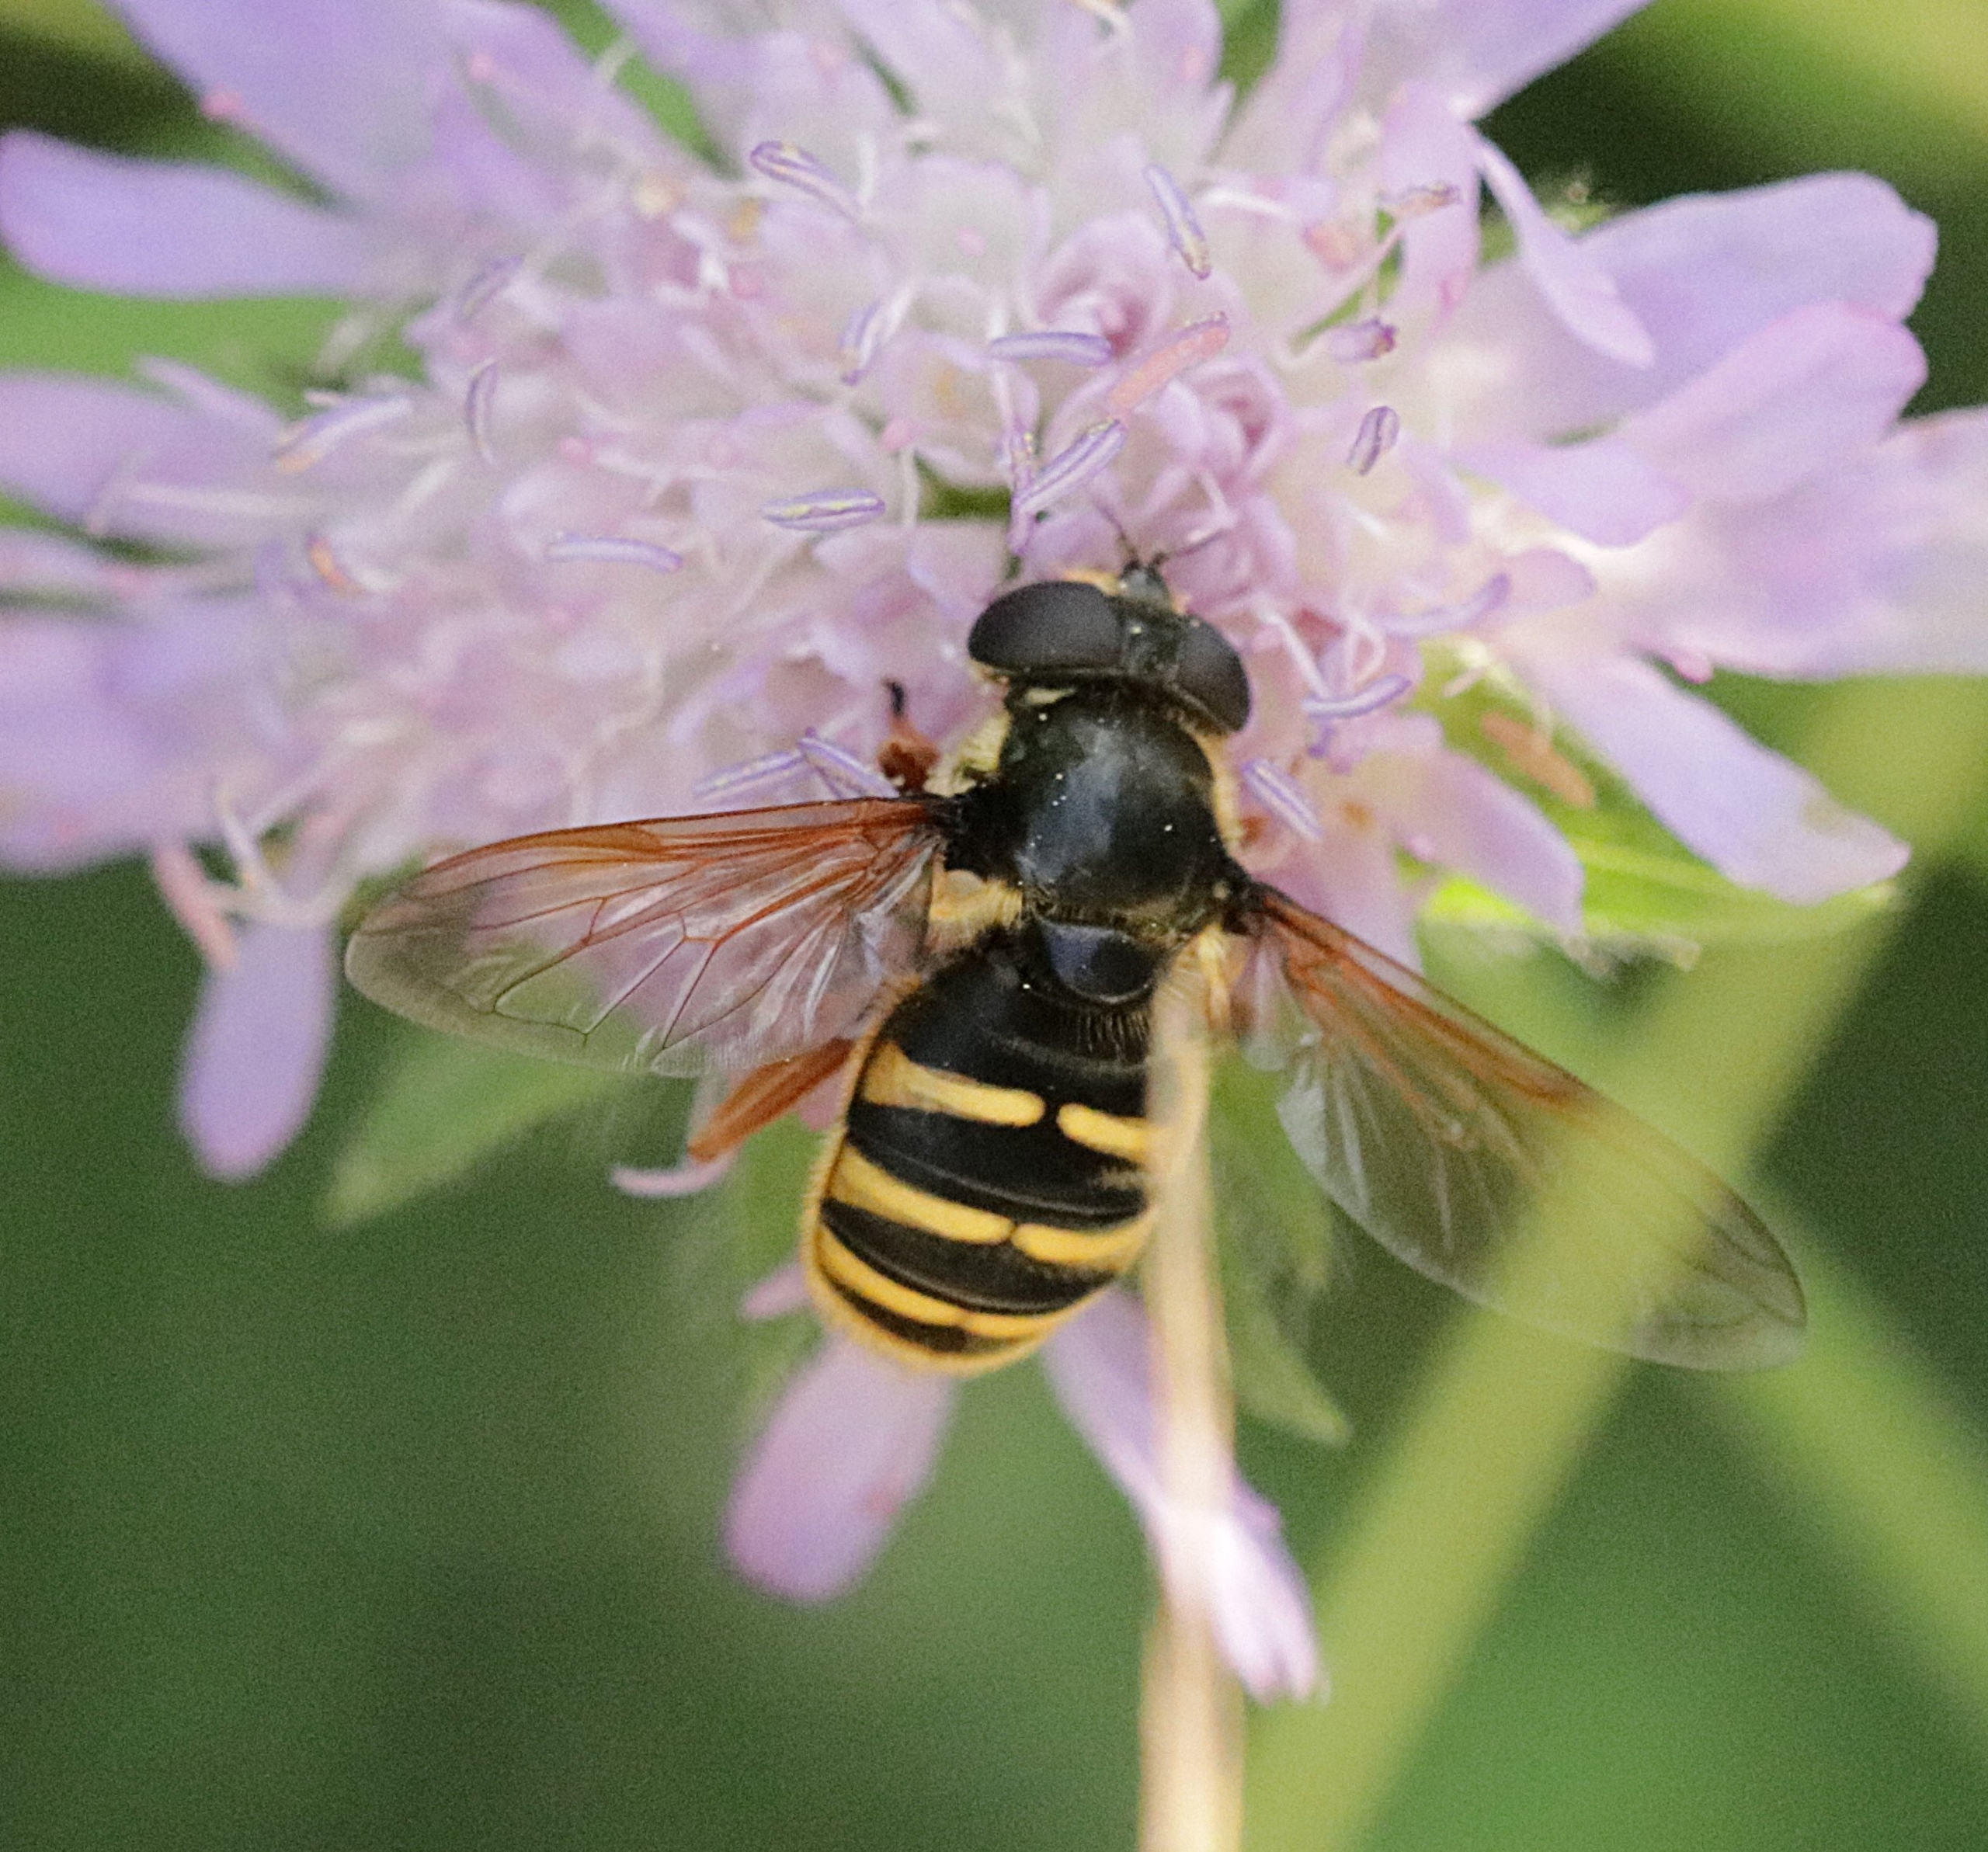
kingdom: Animalia
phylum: Arthropoda
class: Insecta
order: Diptera
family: Syrphidae
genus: Sericomyia
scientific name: Sericomyia silentis
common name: Tørve-silkesvirreflue
